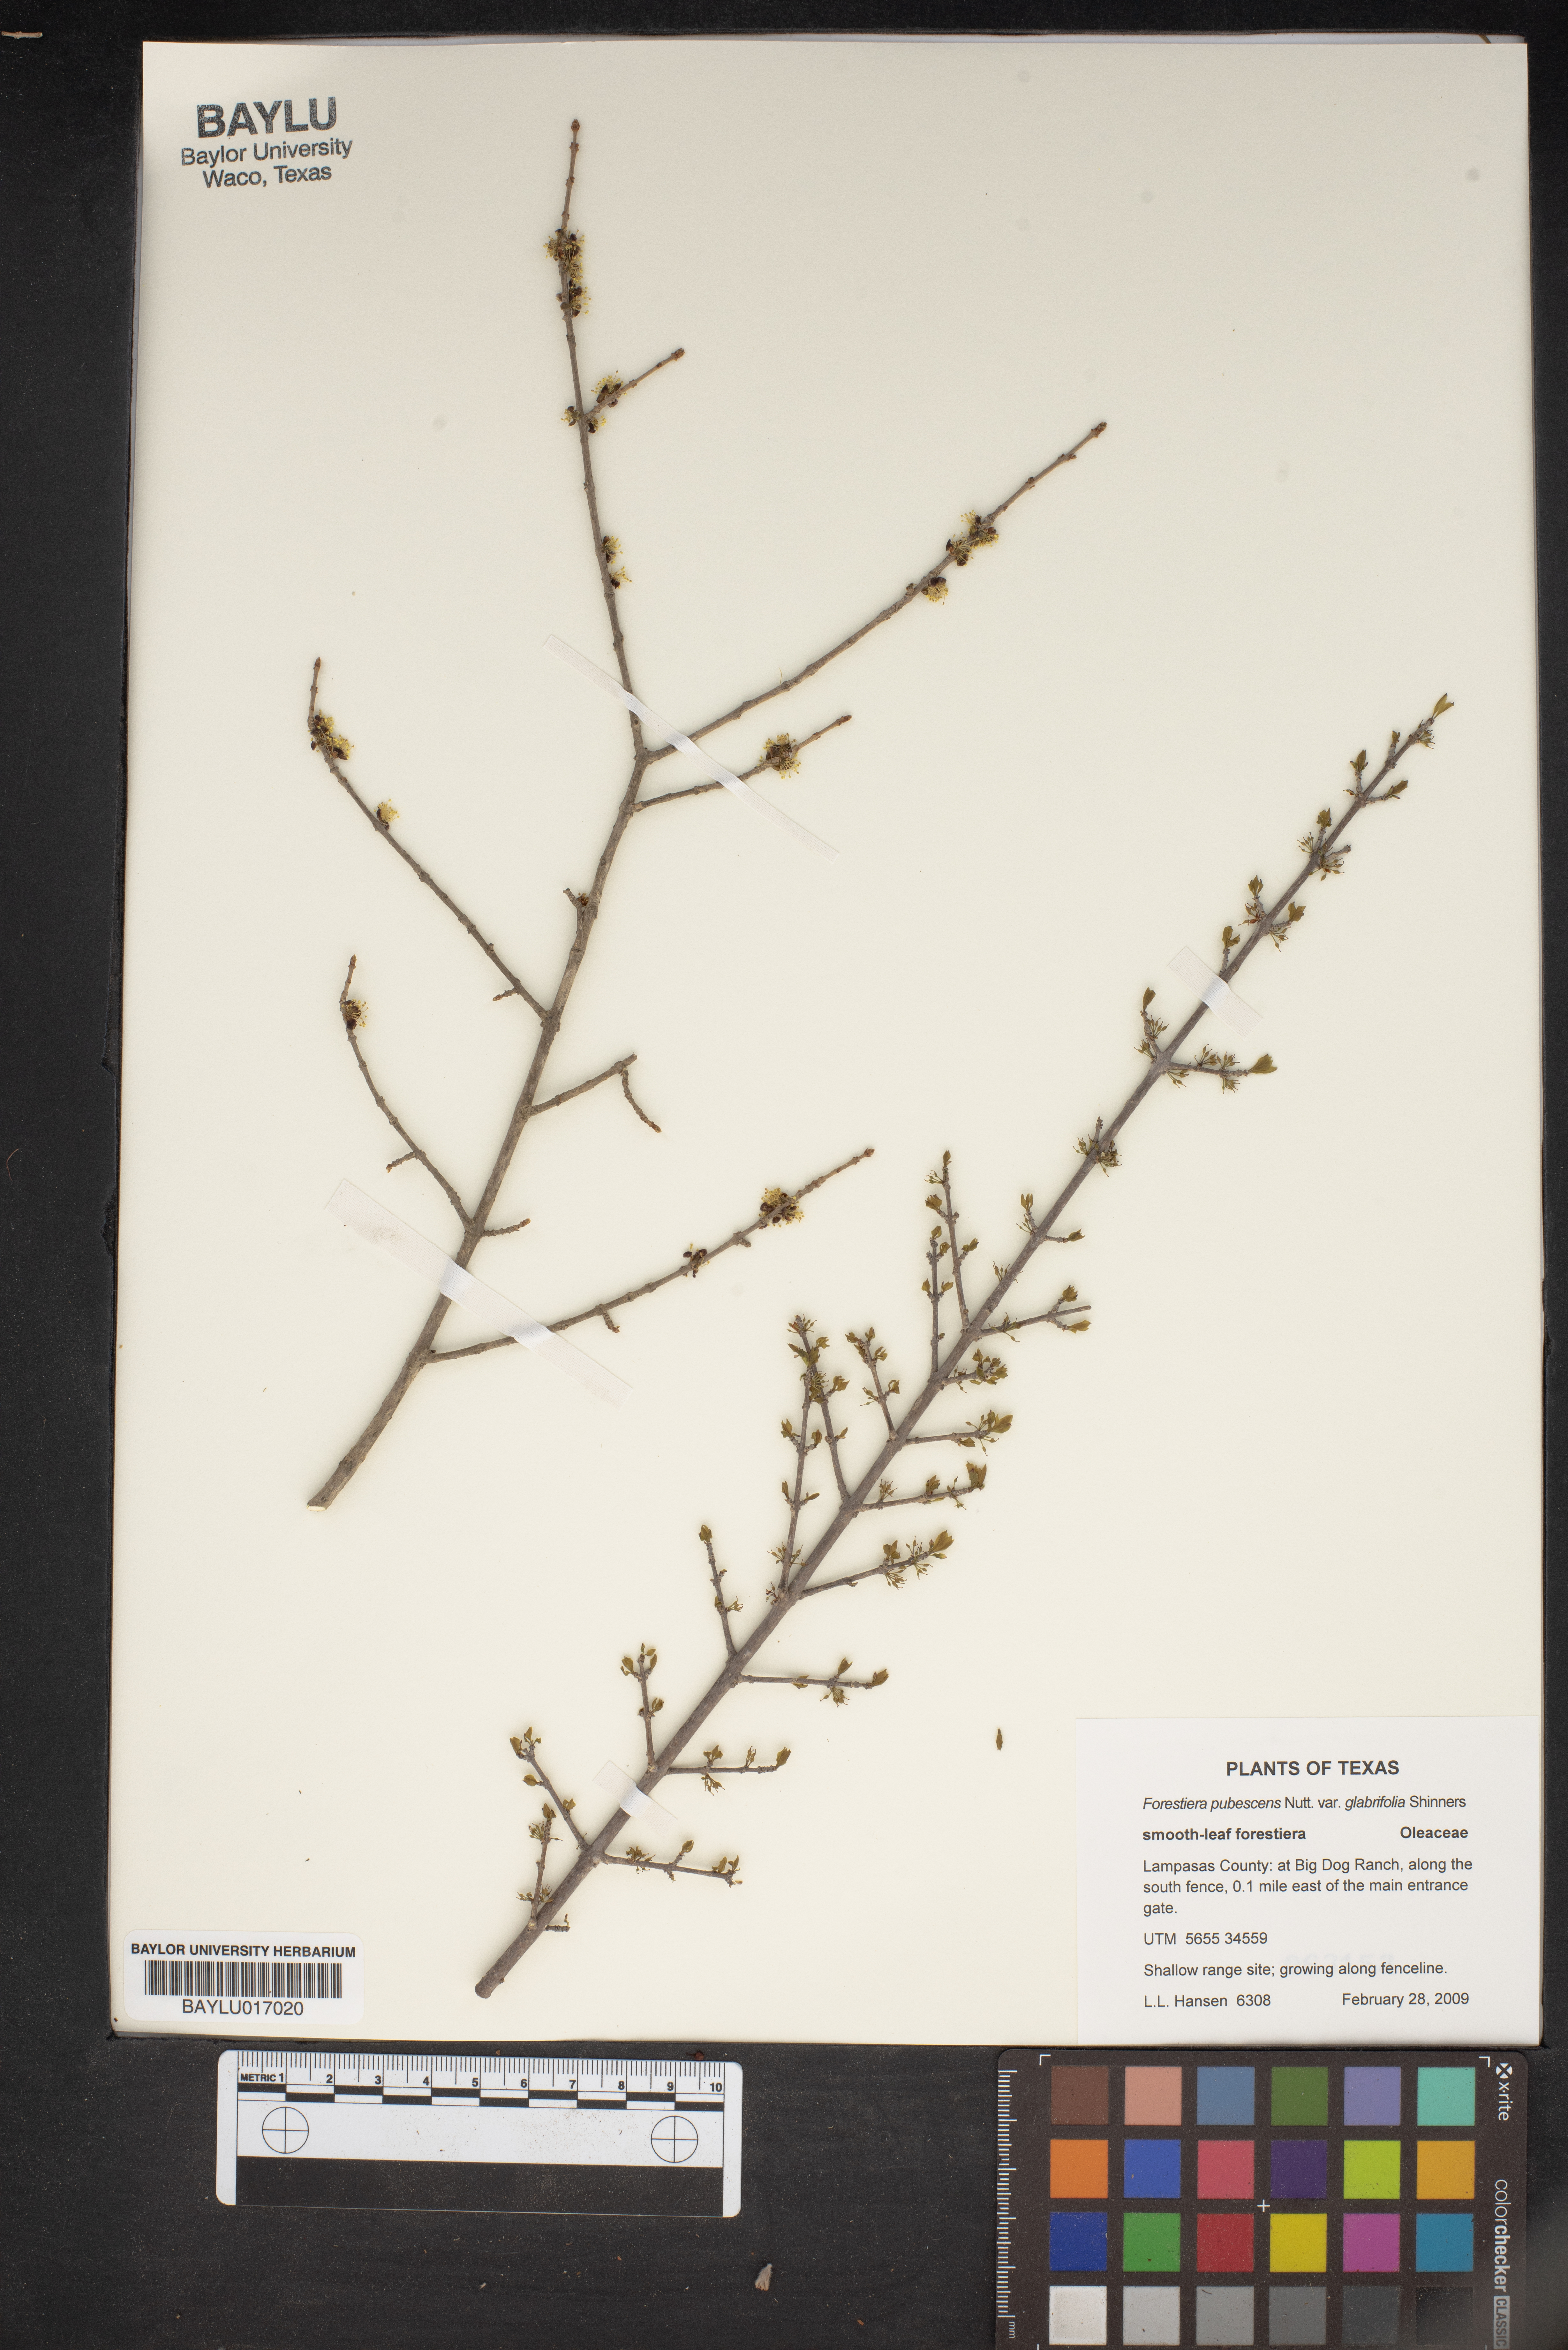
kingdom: Plantae
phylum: Tracheophyta
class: Magnoliopsida
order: Lamiales
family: Oleaceae
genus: Forestiera
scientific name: Forestiera pubescens
